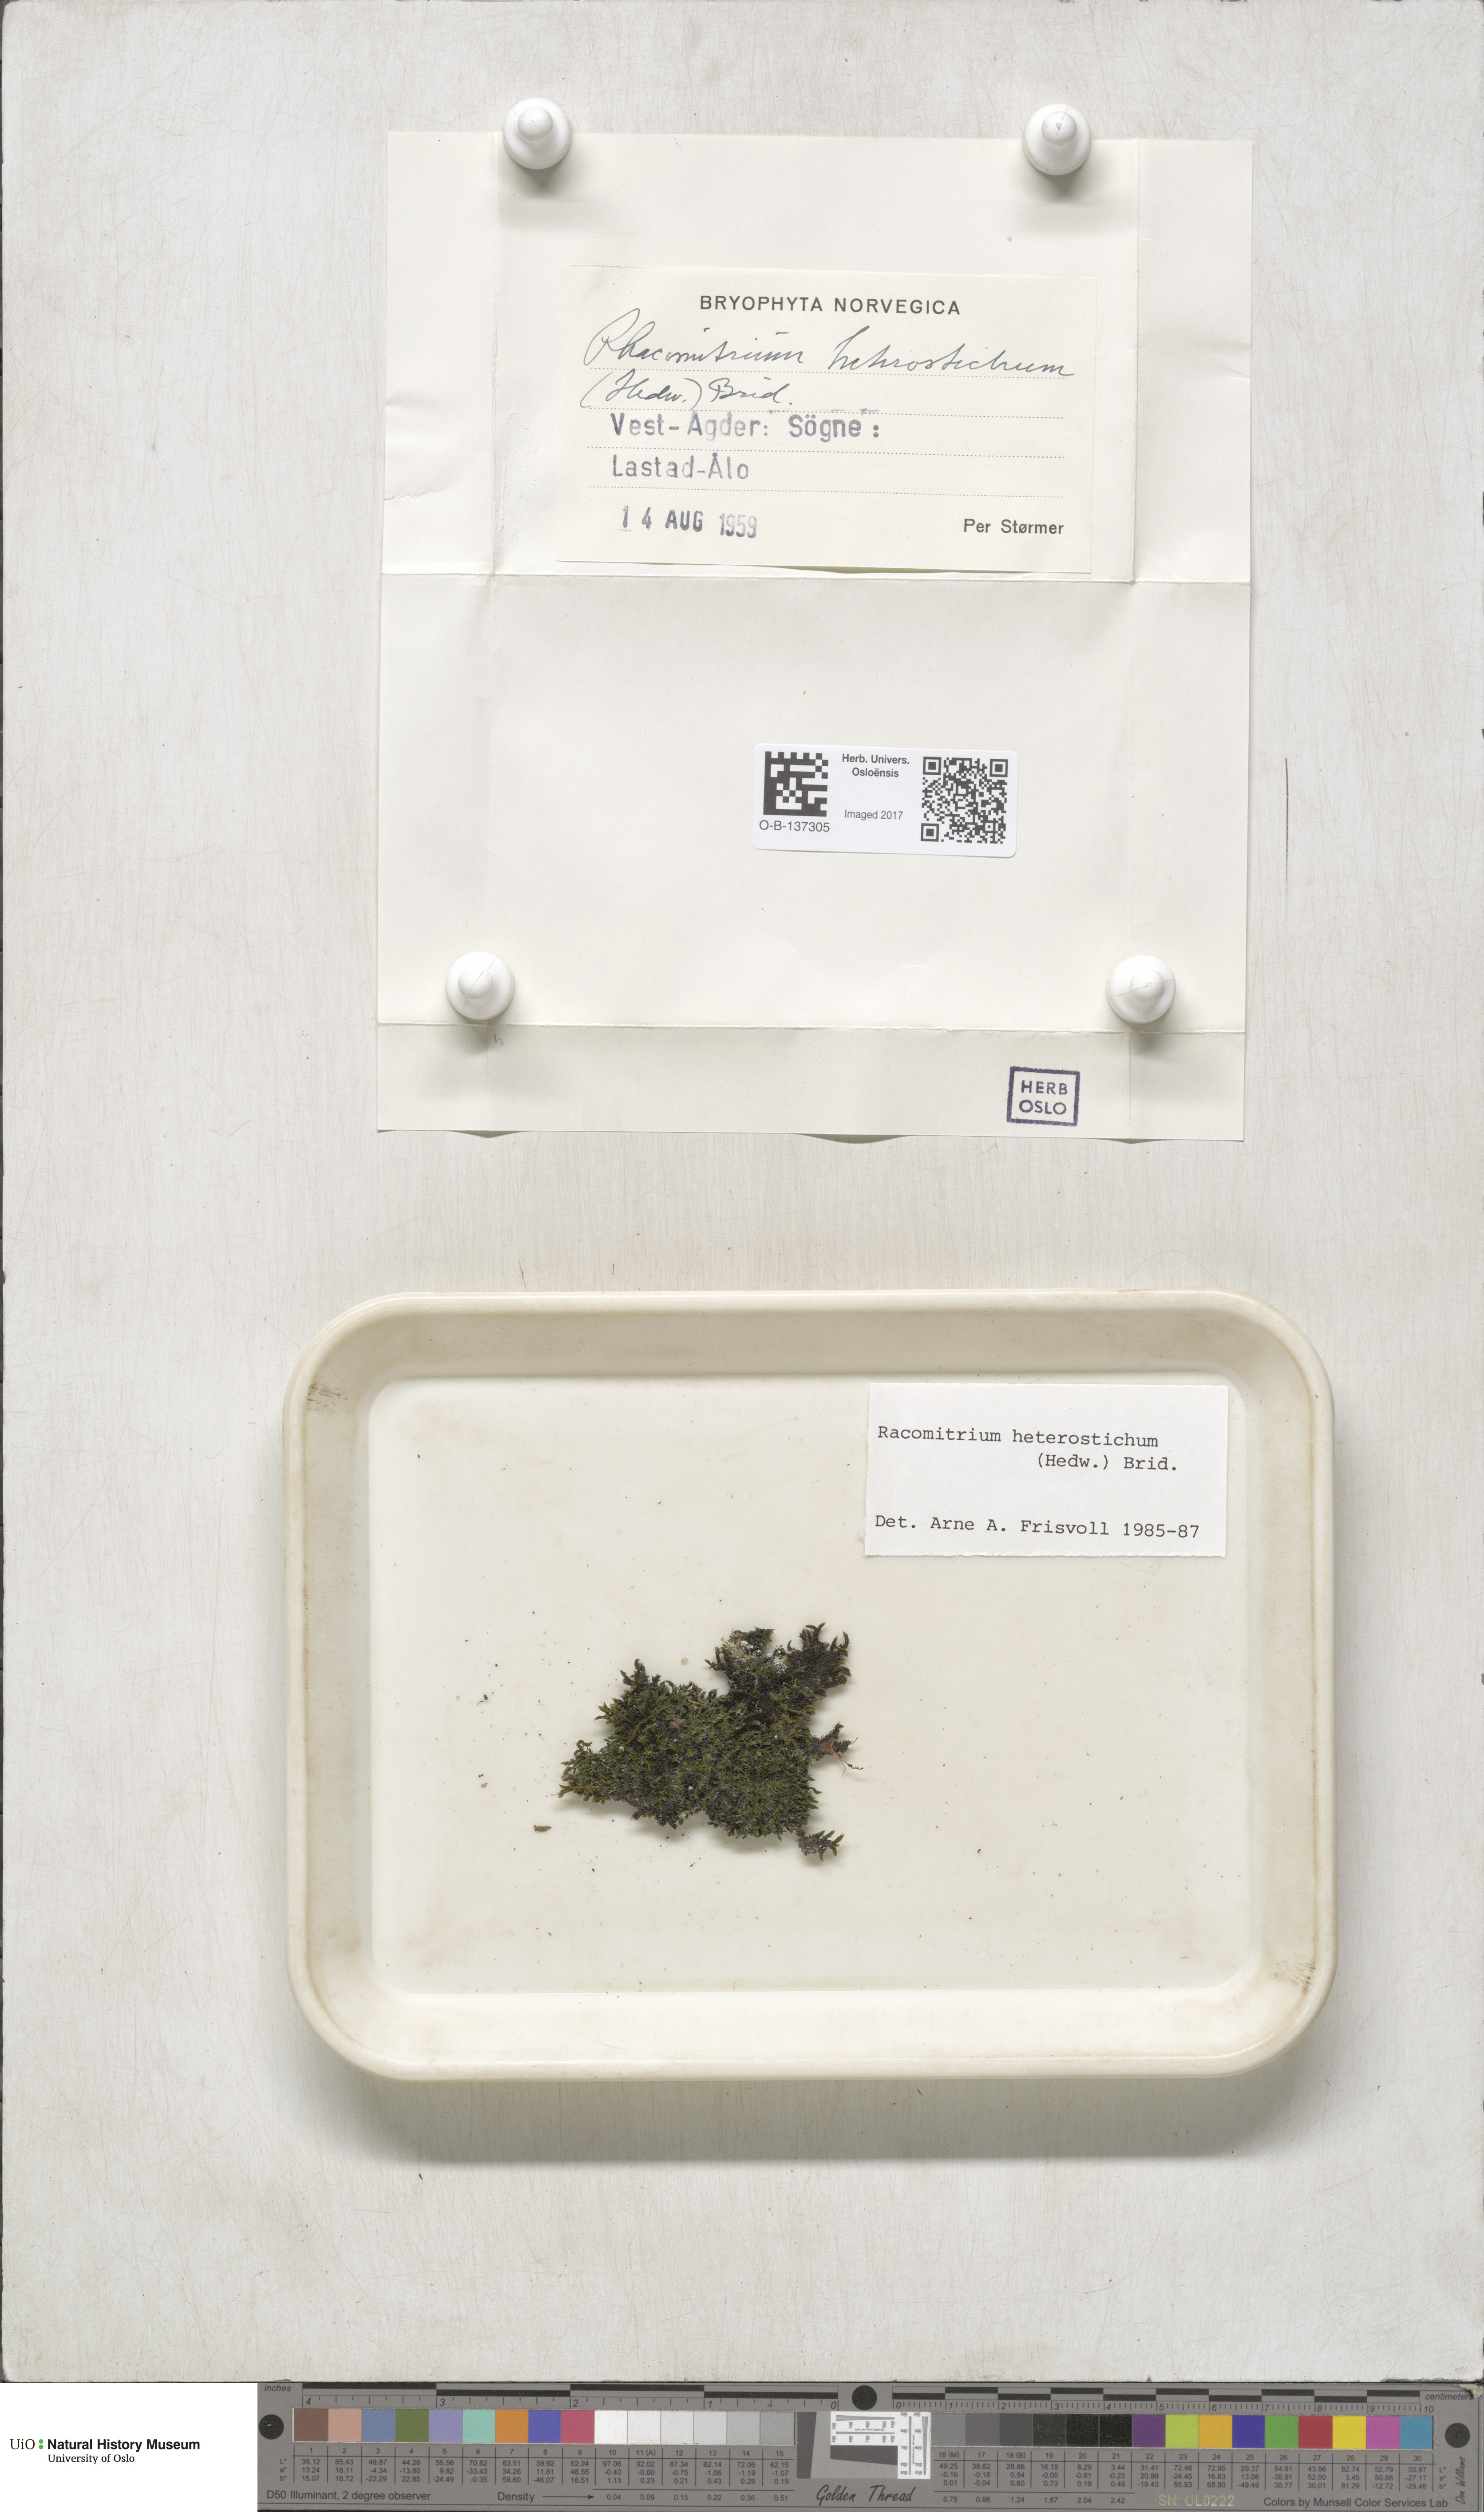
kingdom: Plantae
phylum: Bryophyta
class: Bryopsida
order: Grimmiales
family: Grimmiaceae
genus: Bucklandiella
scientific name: Bucklandiella heterosticha
